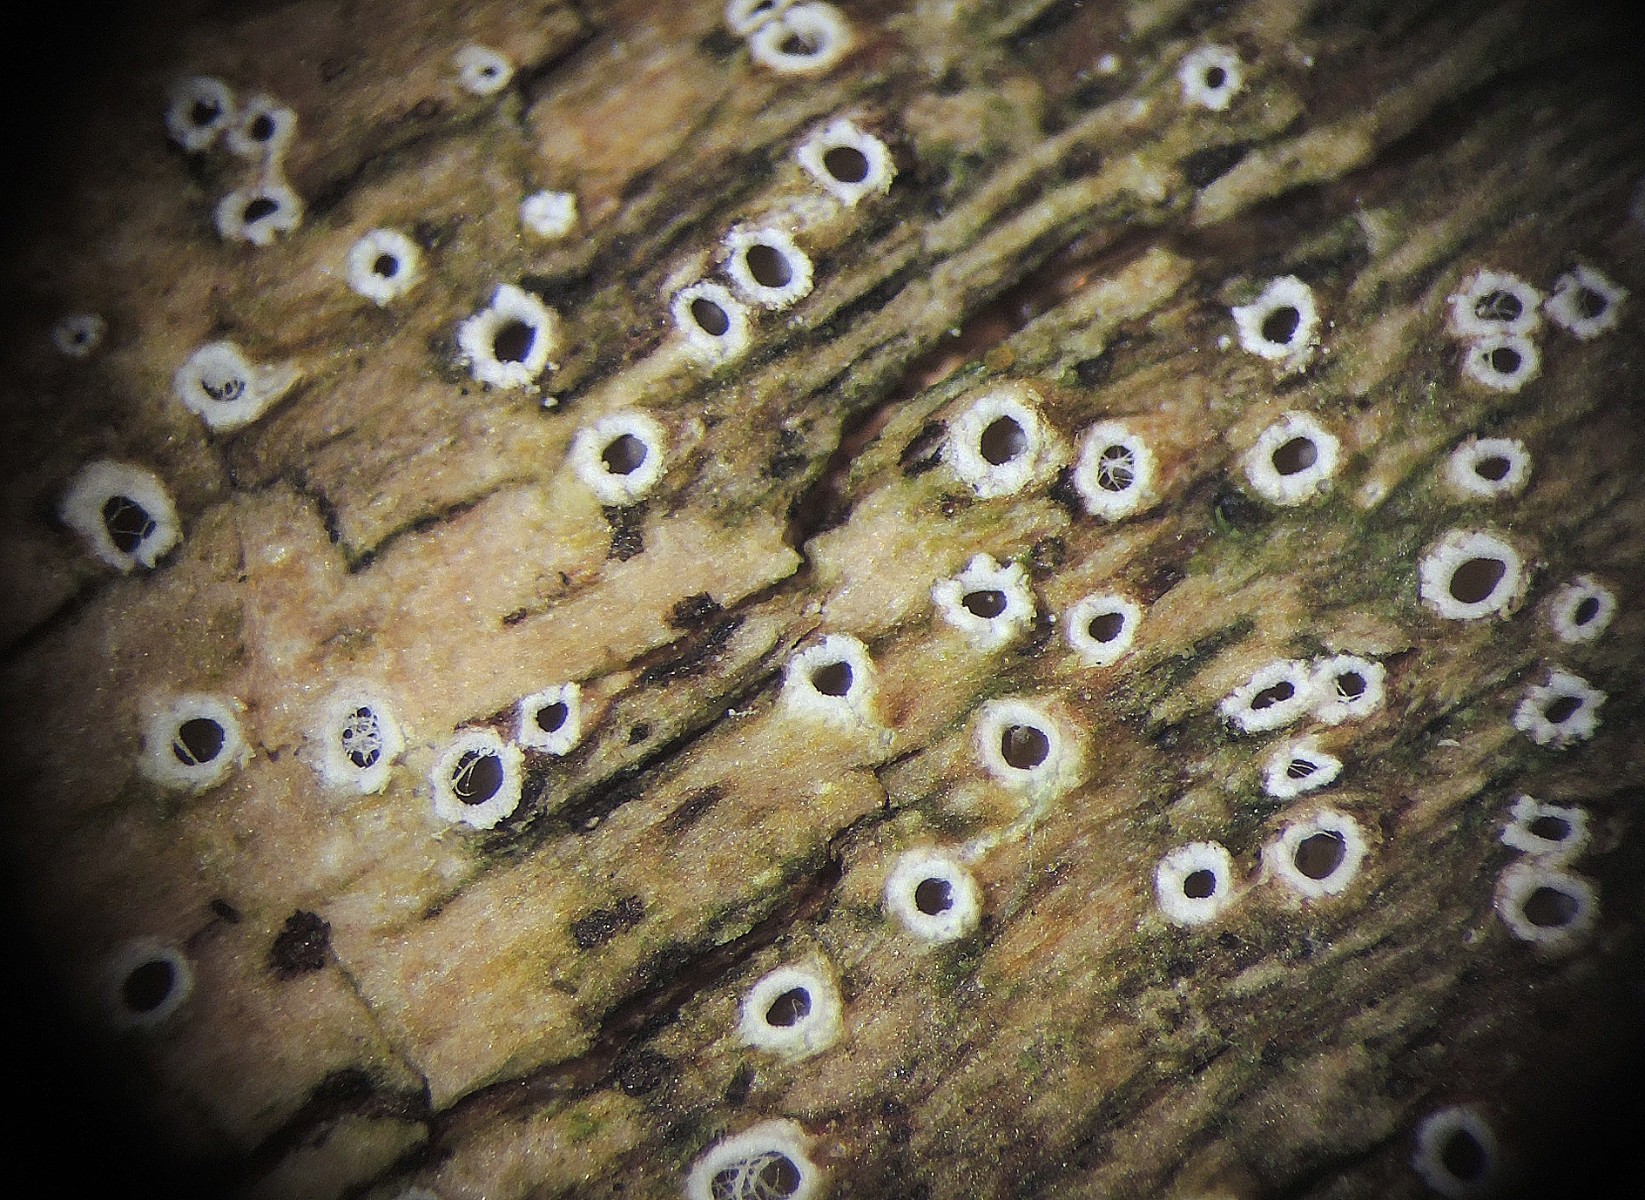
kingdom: Fungi
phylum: Ascomycota
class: Lecanoromycetes
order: Ostropales
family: Stictidaceae
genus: Stictis
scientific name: Stictis radiata
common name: tandet barkhul
